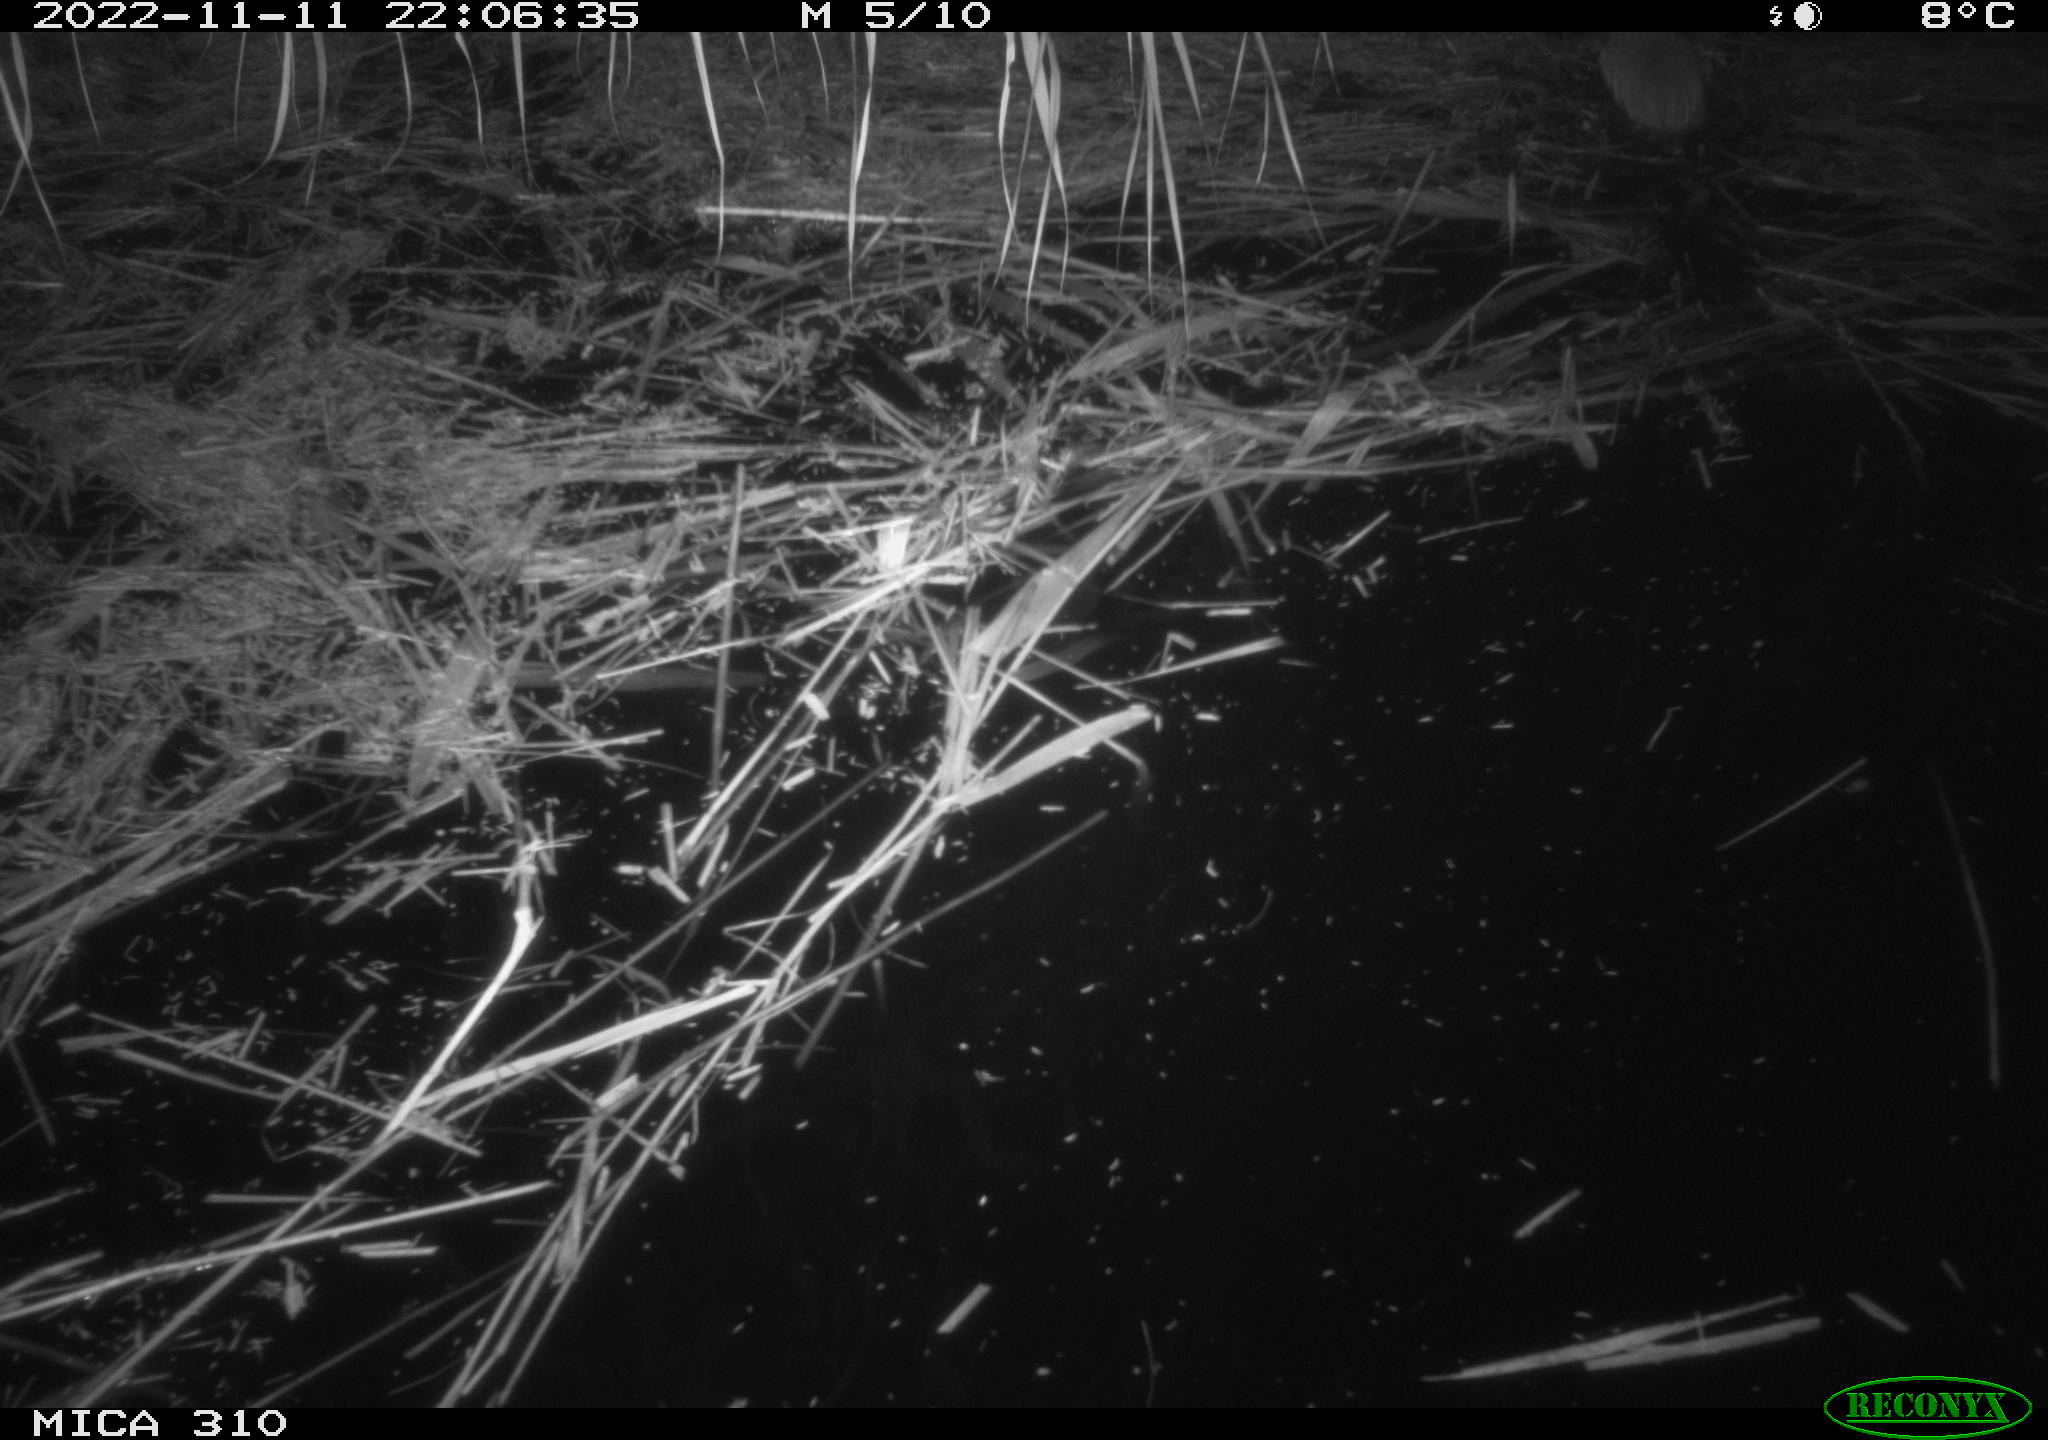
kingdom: Animalia
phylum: Chordata
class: Mammalia
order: Rodentia
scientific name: Rodentia
